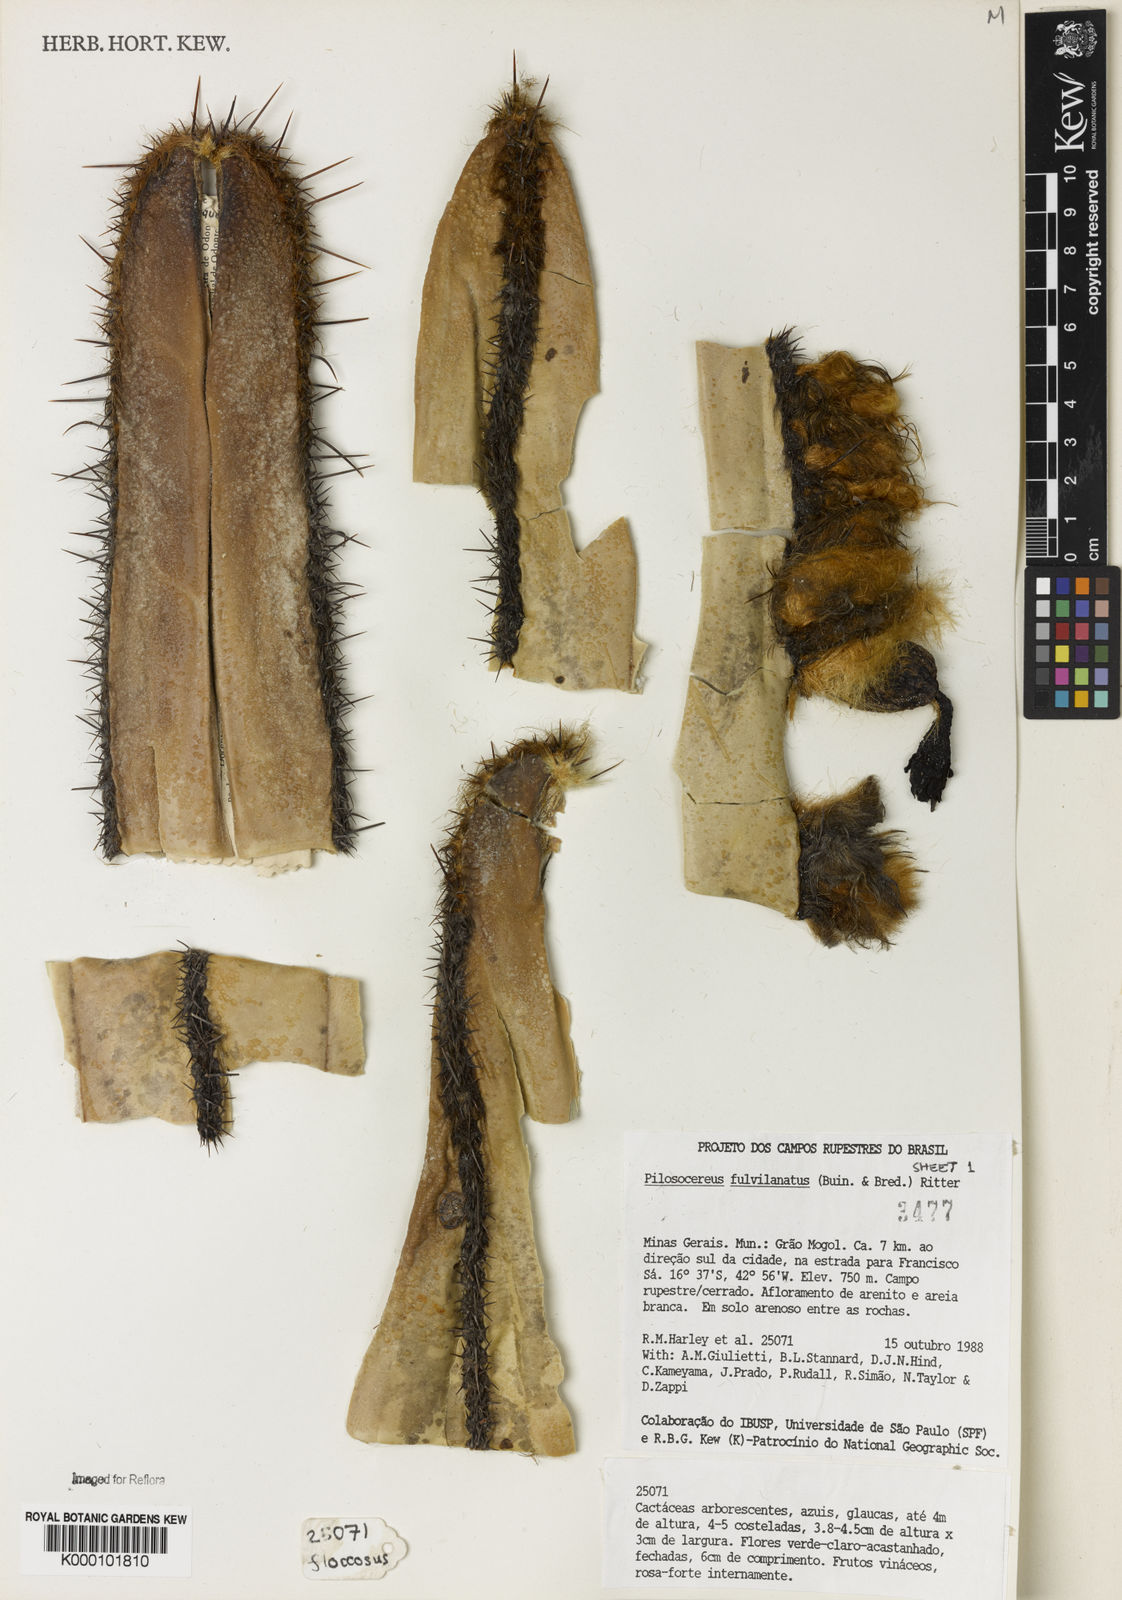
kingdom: Plantae
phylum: Tracheophyta
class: Magnoliopsida
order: Caryophyllales
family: Cactaceae
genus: Pilosocereus
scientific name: Pilosocereus fulvilanatus
